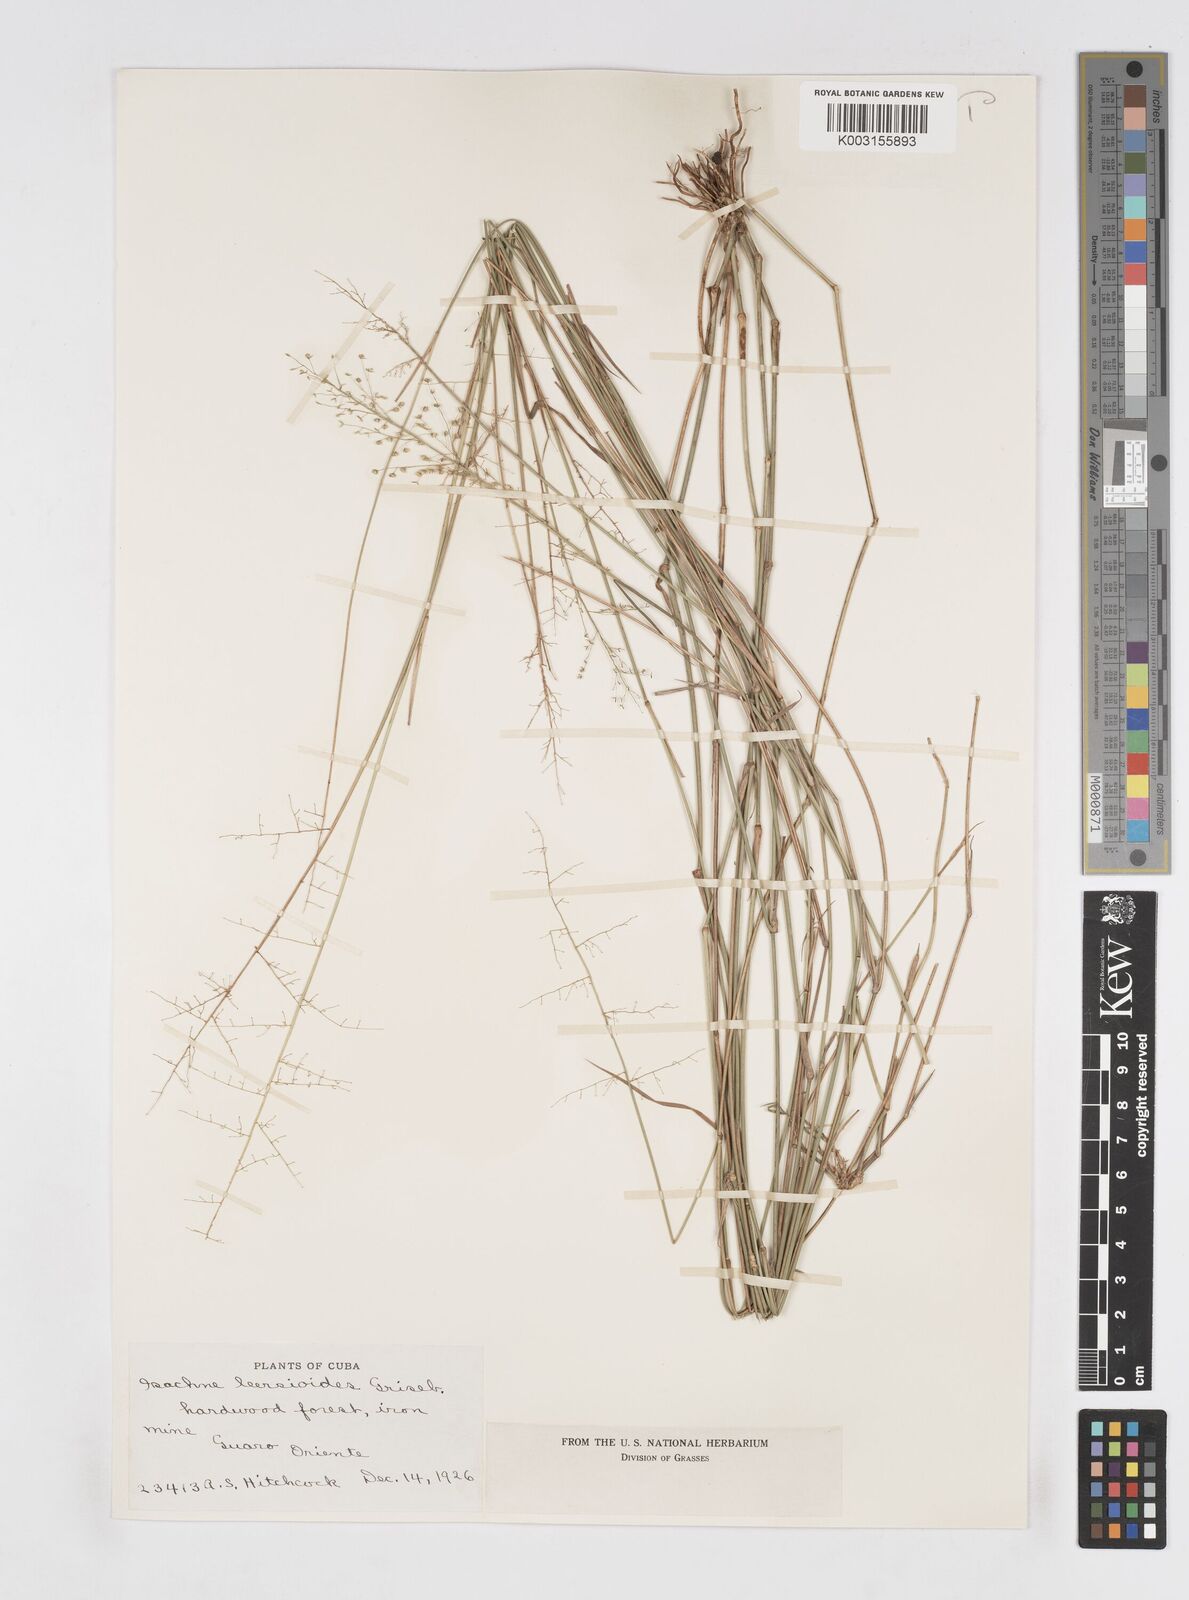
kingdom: Plantae
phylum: Tracheophyta
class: Liliopsida
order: Poales
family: Poaceae
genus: Isachne
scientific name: Isachne leersioides
